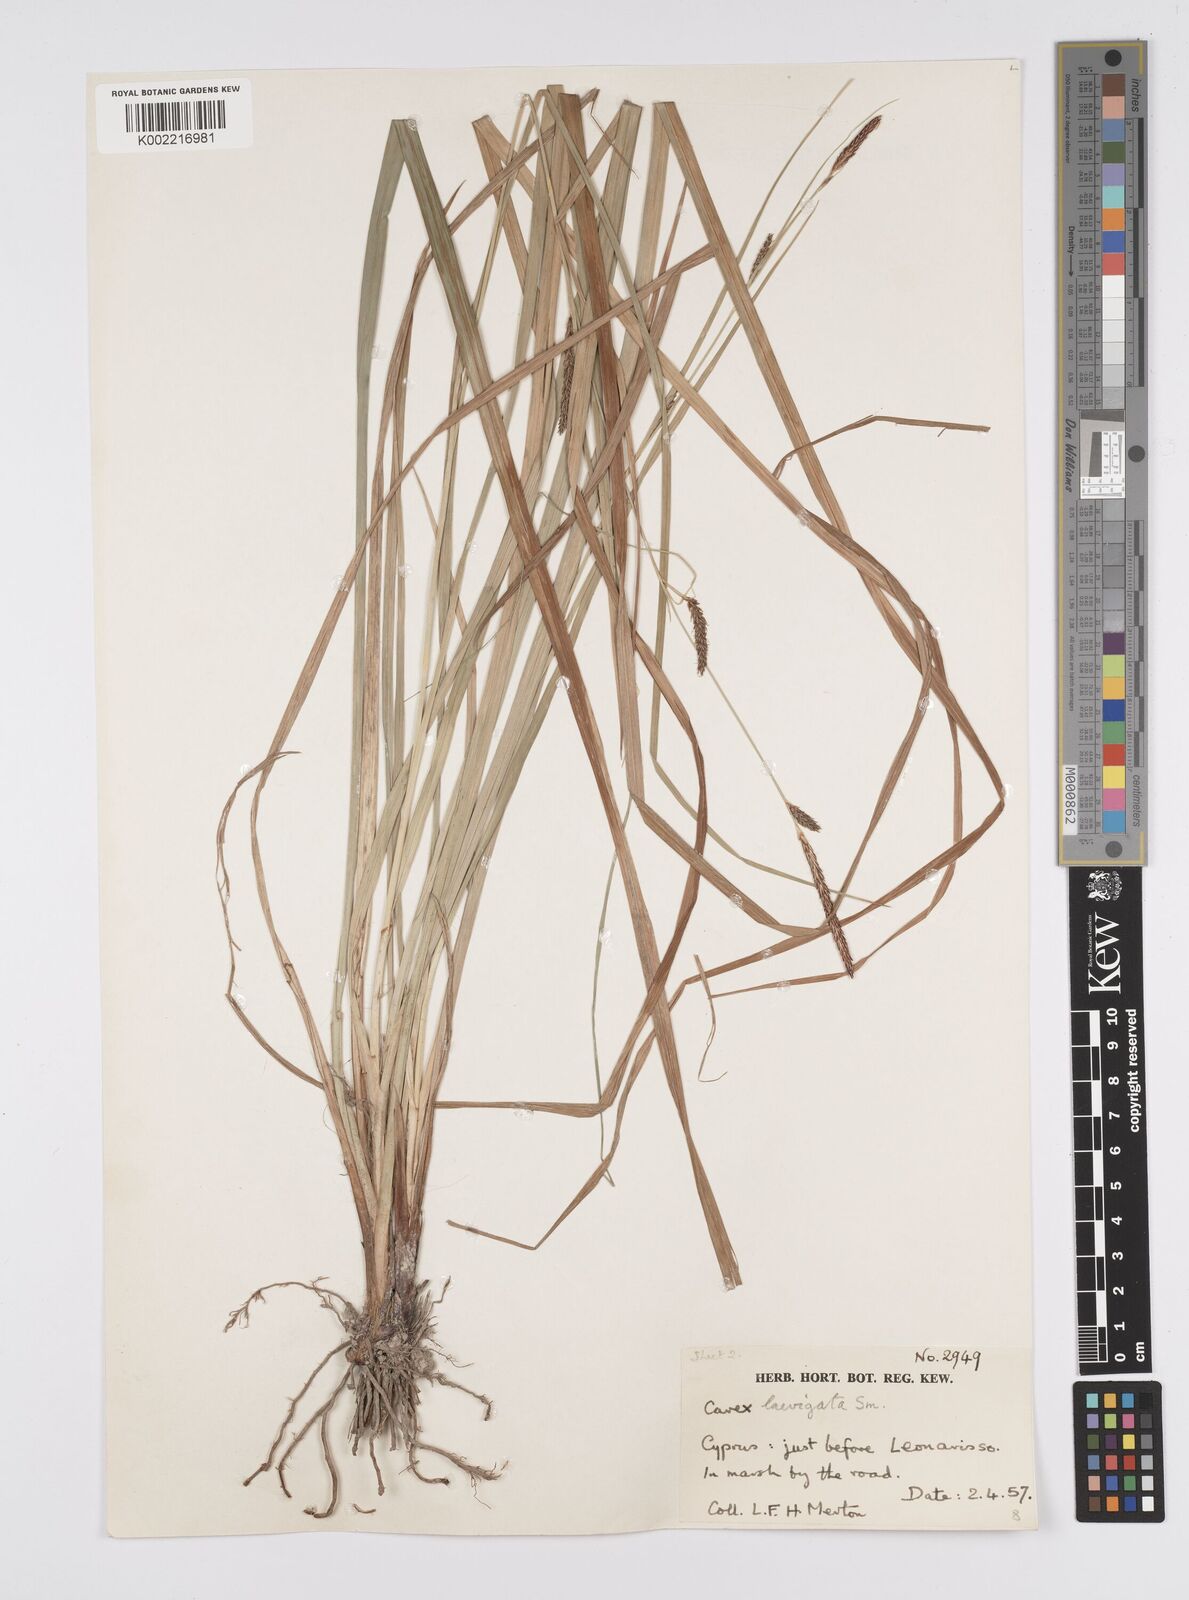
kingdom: Plantae
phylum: Tracheophyta
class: Liliopsida
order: Poales
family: Cyperaceae
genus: Carex
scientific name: Carex distans
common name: Distant sedge
